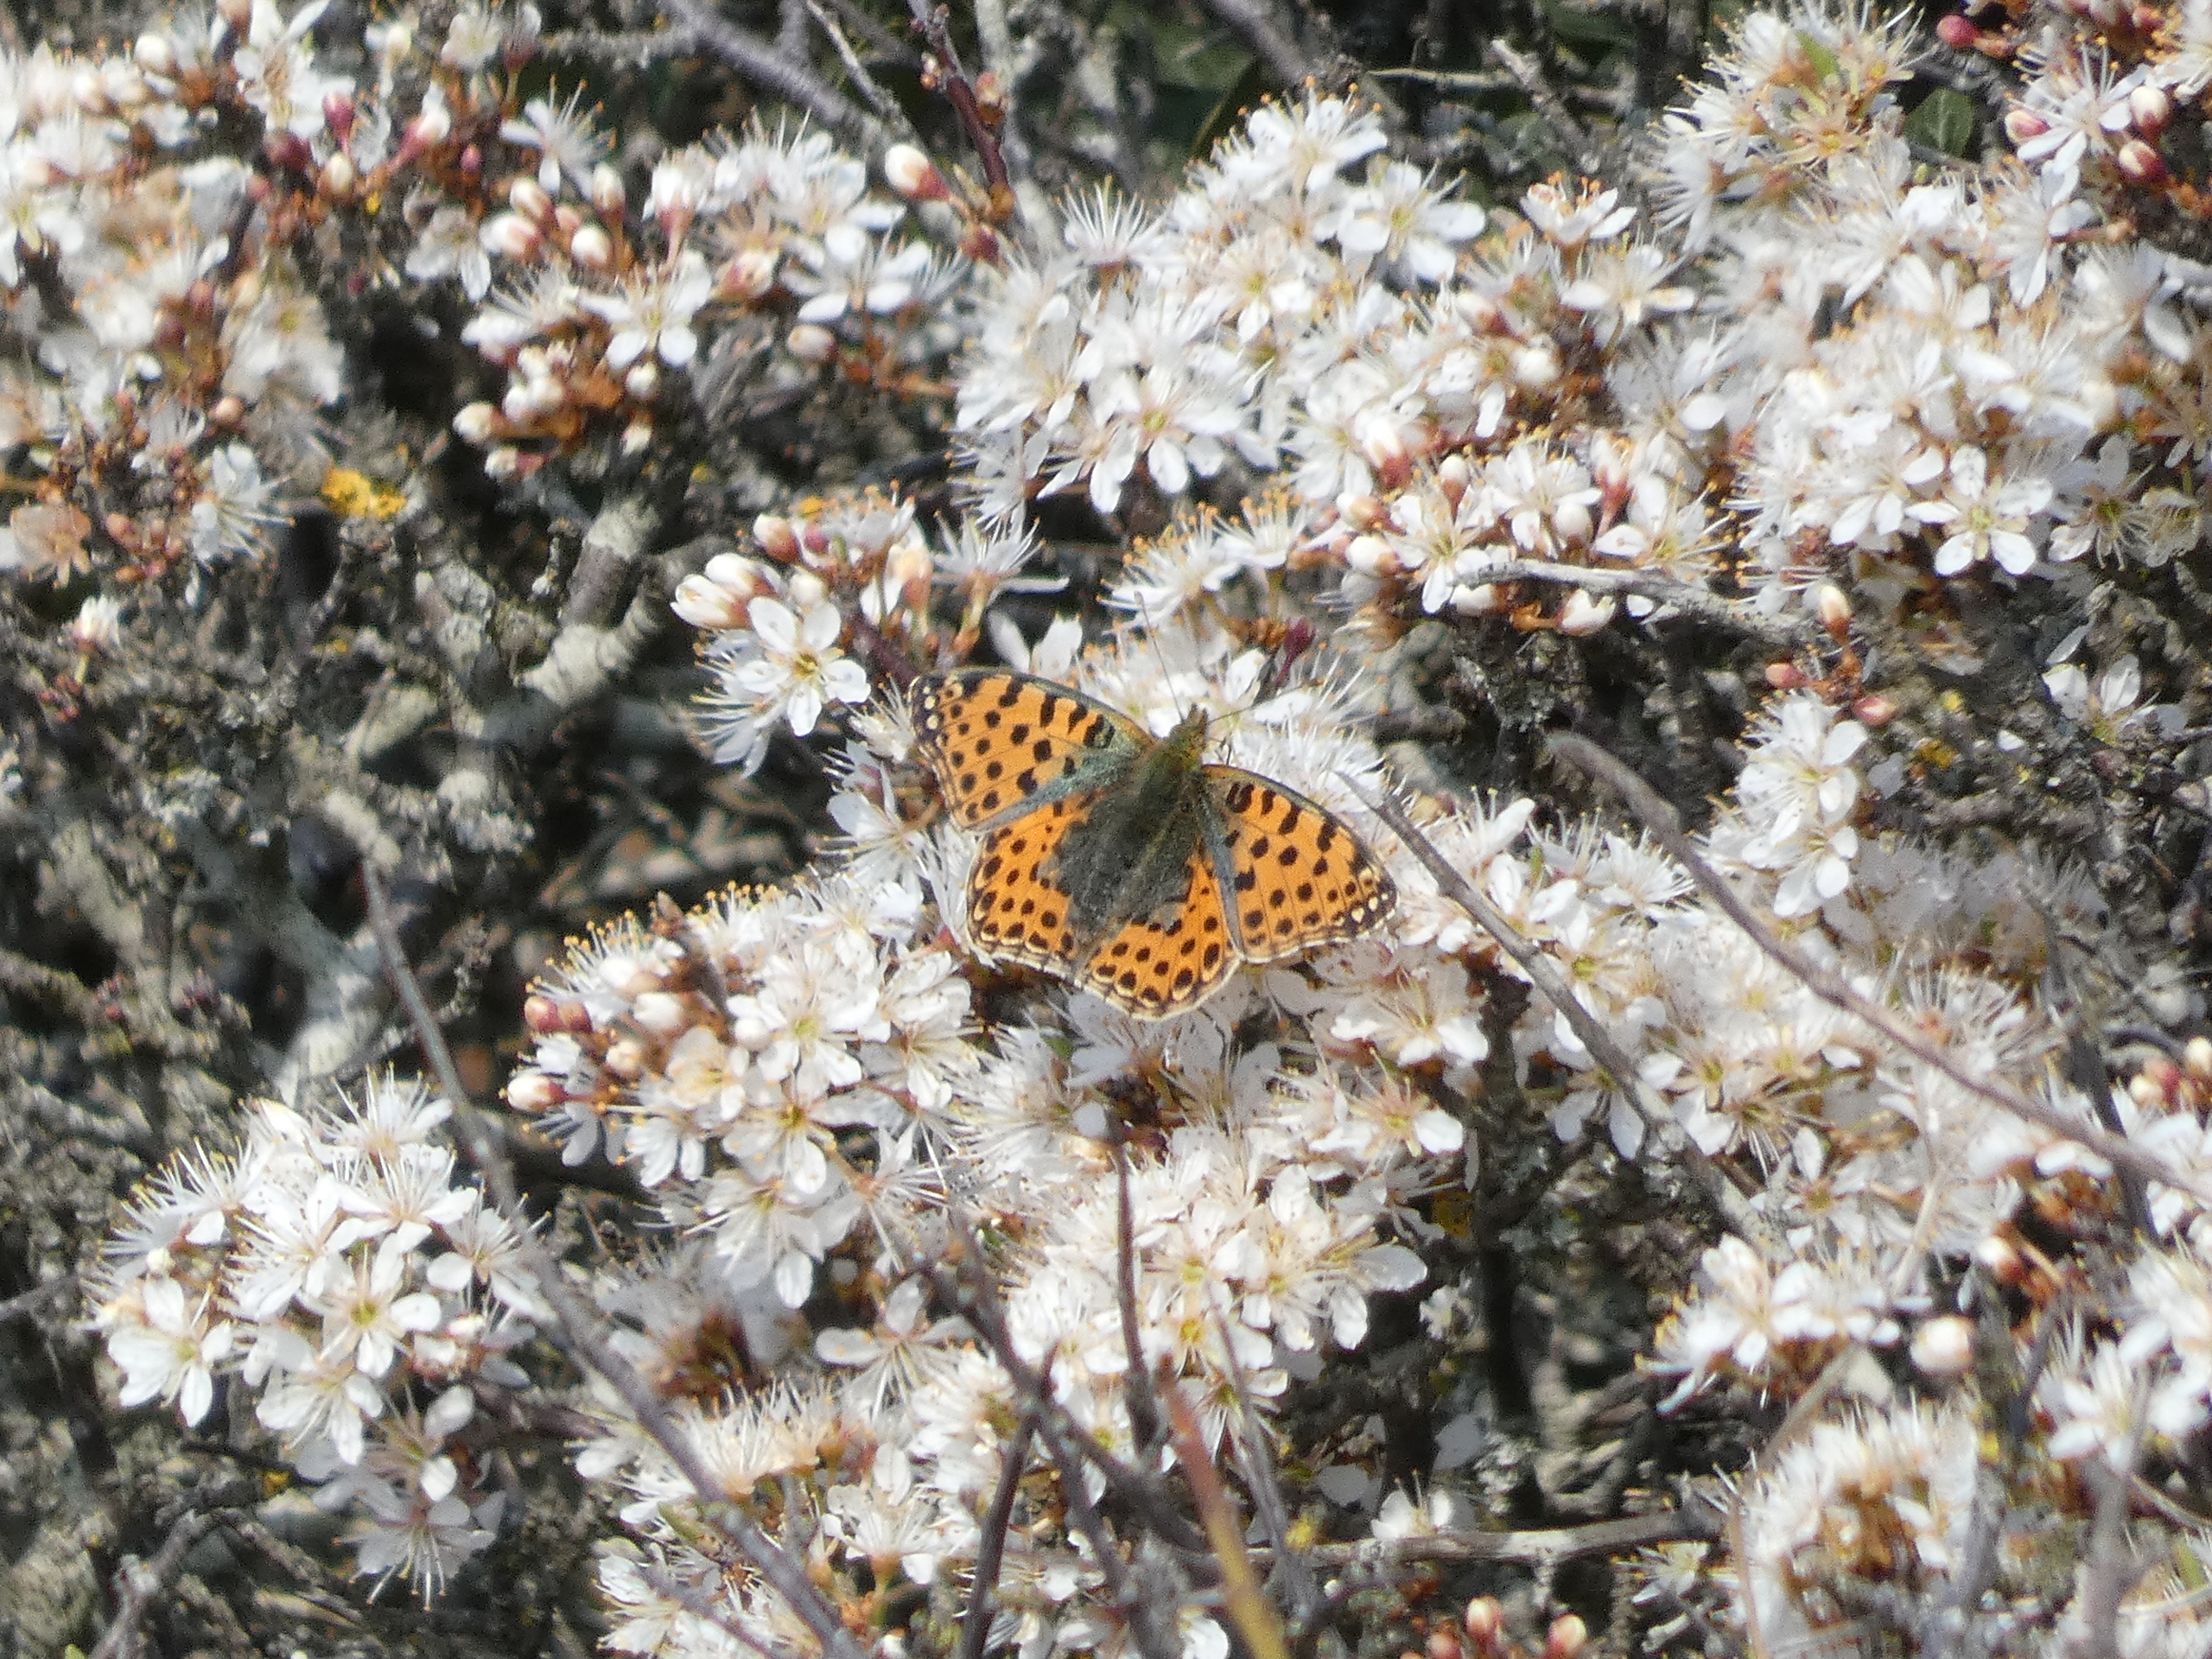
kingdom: Plantae
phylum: Tracheophyta
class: Magnoliopsida
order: Rosales
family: Rosaceae
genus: Prunus
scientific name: Prunus spinosa
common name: Slåen
